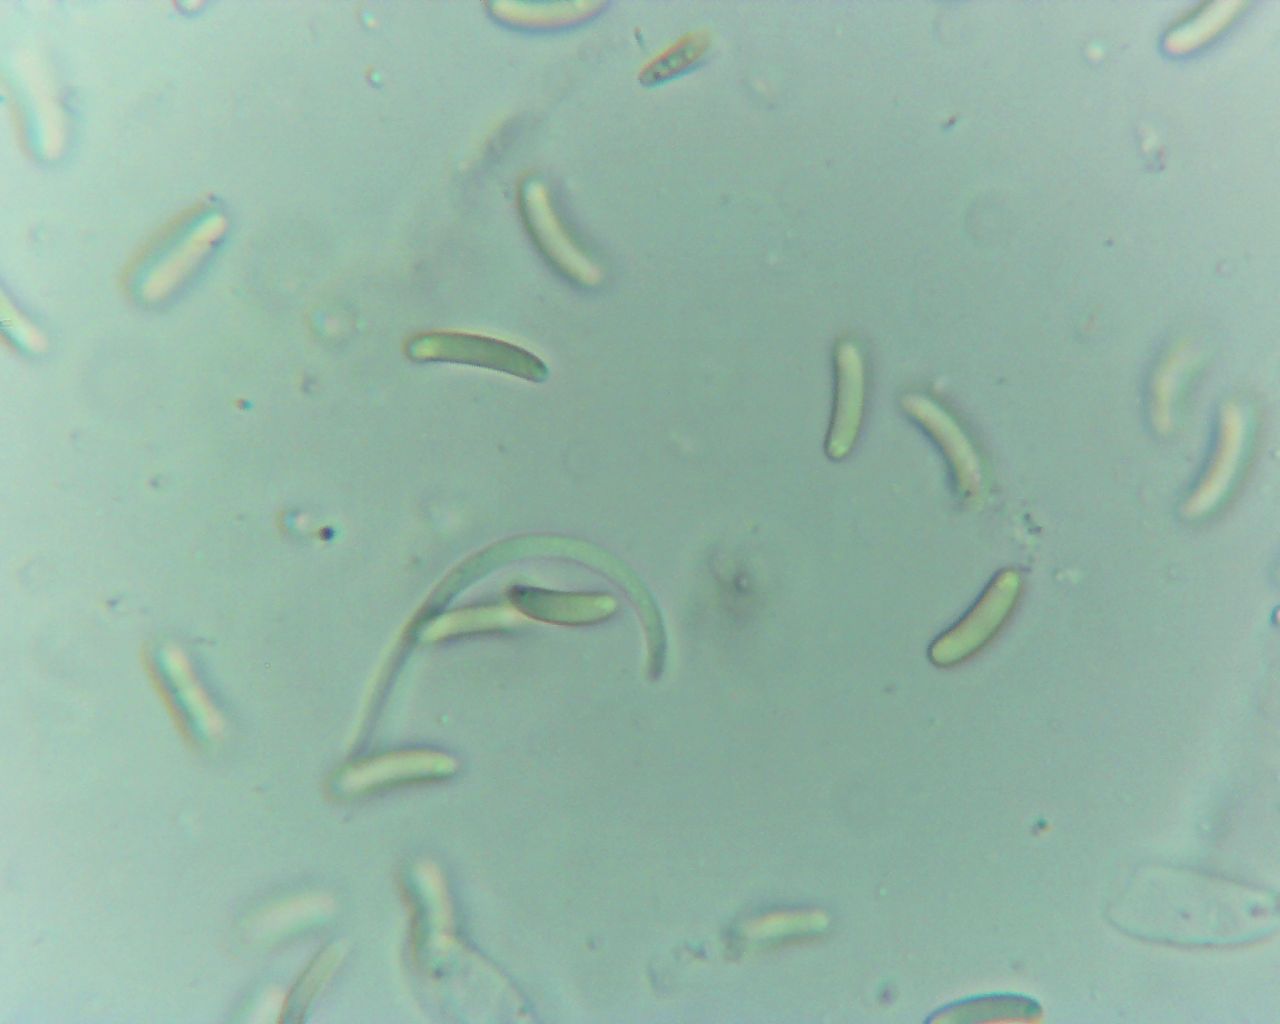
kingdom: Fungi
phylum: Ascomycota
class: Sordariomycetes
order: Xylariales
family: Diatrypaceae
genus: Eutypella
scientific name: Eutypella sorbi
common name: rønne-kulskorpe
